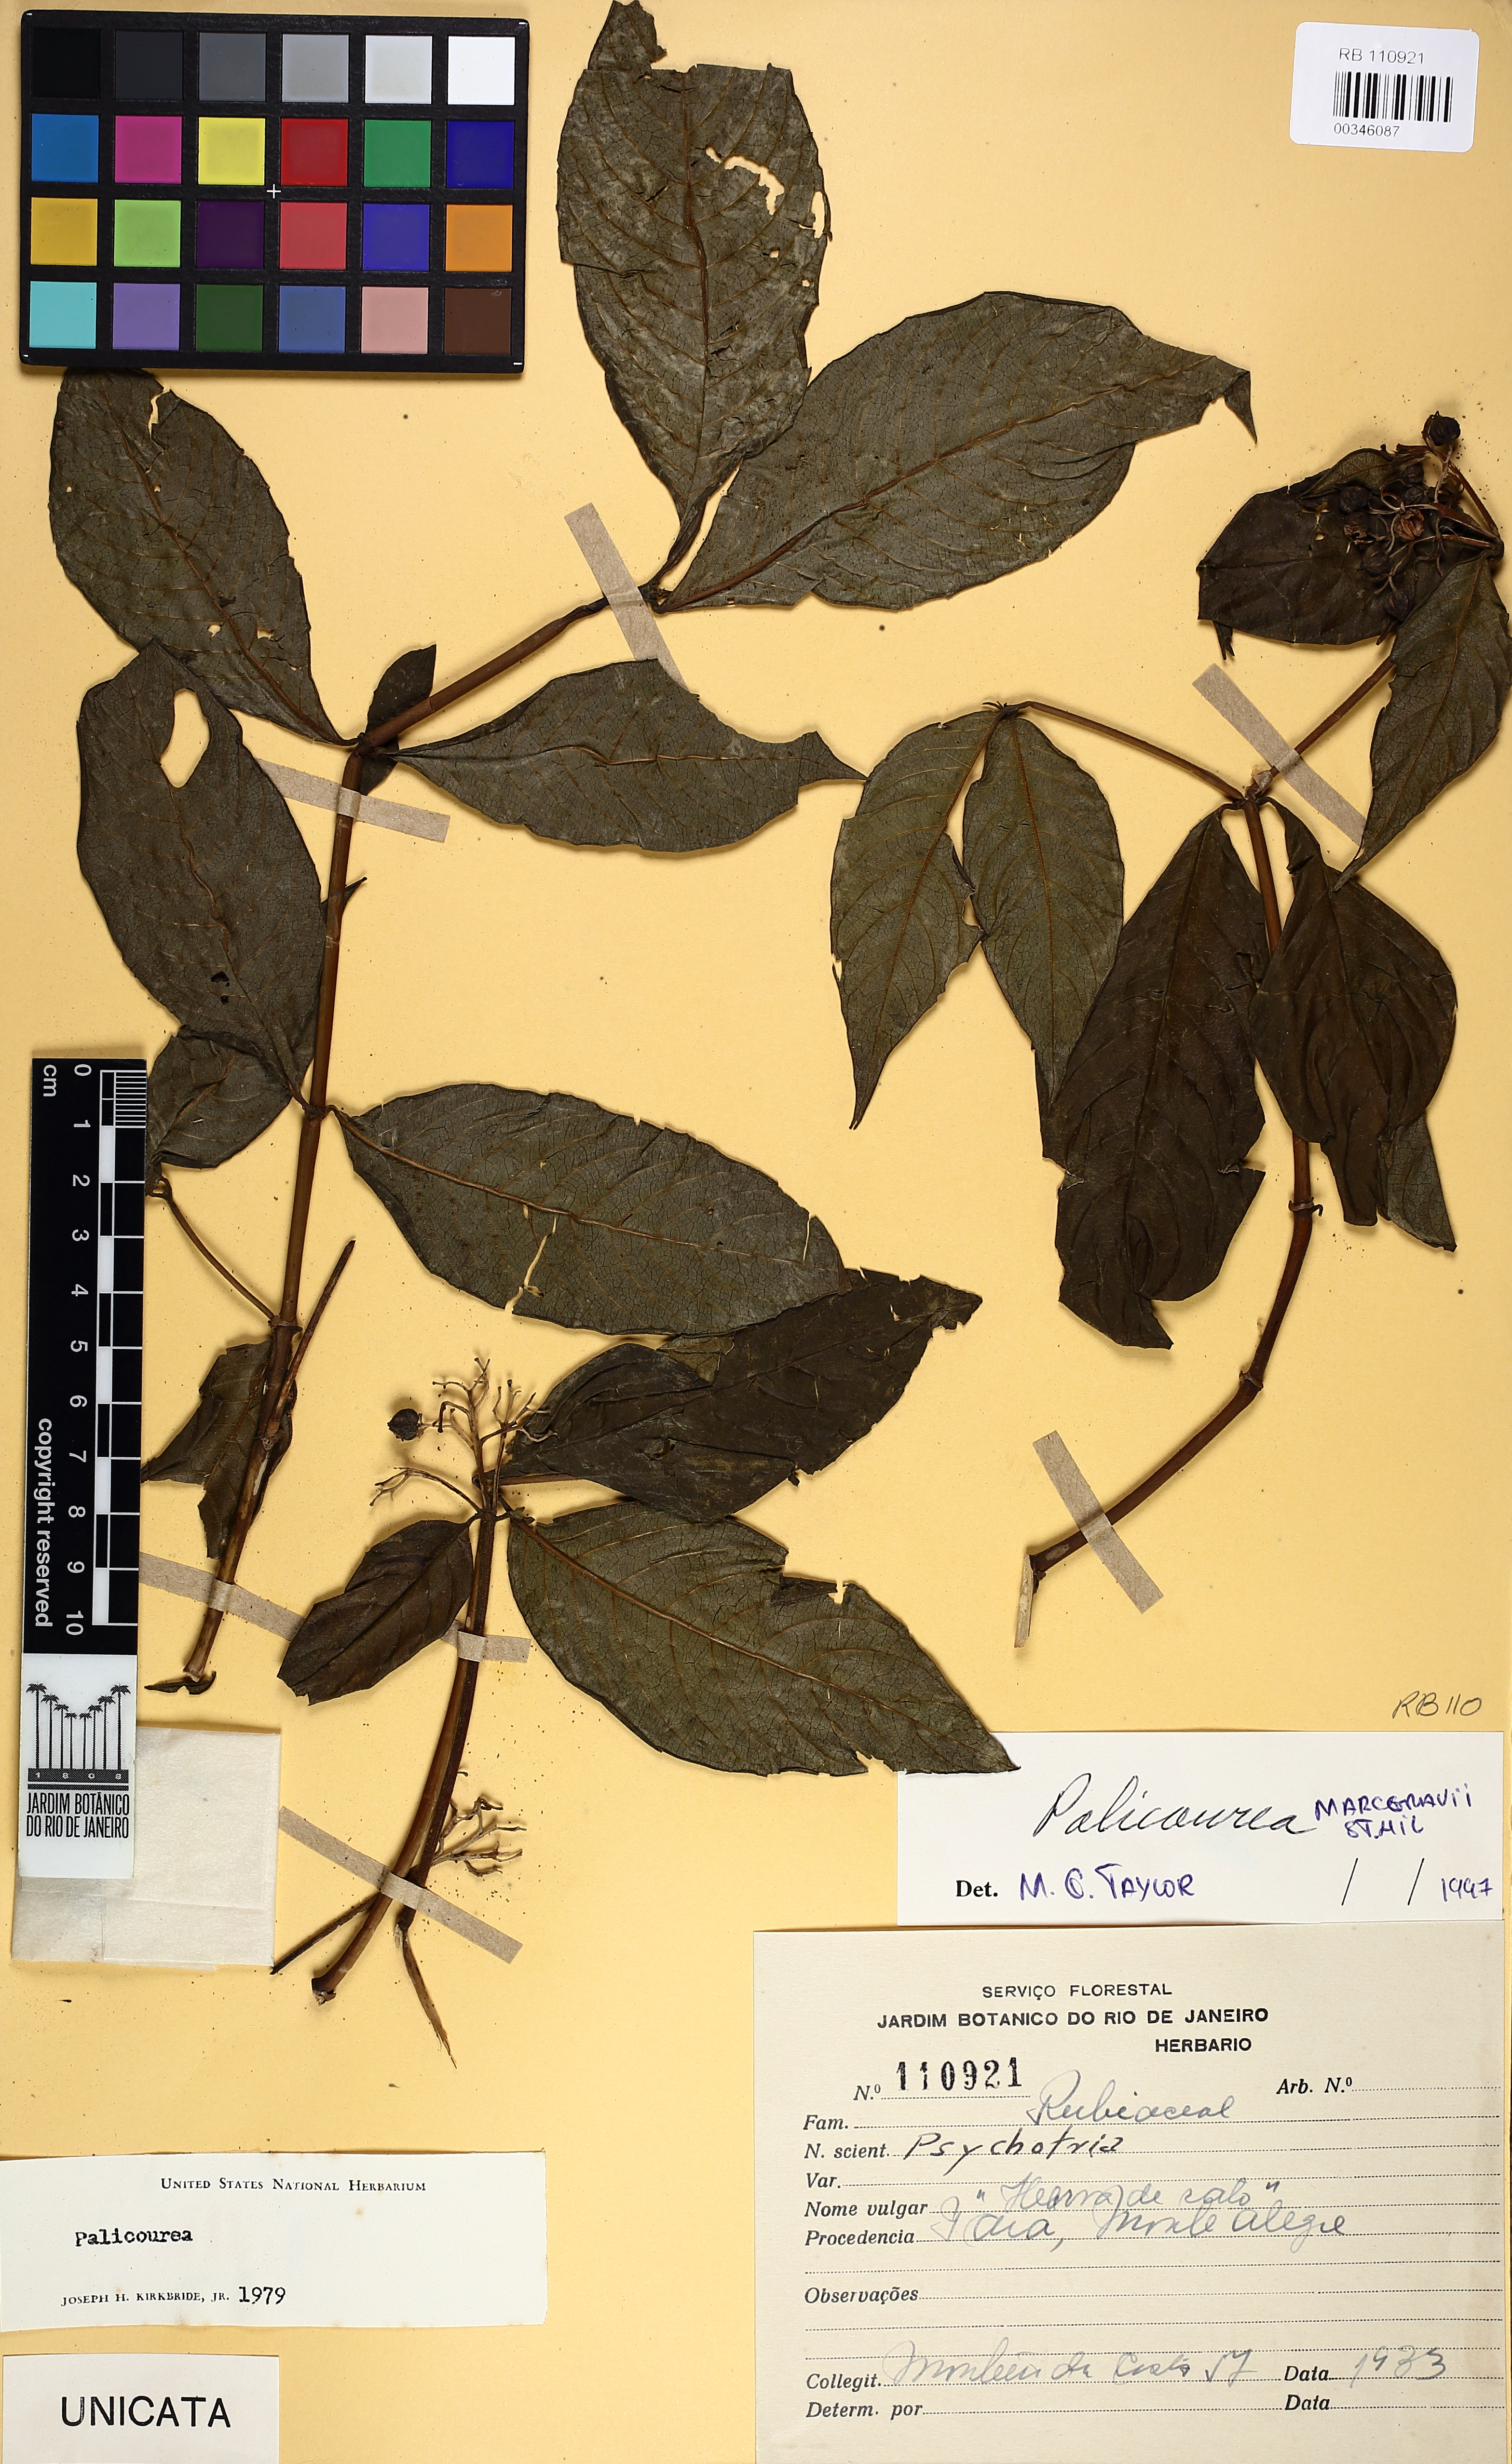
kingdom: Plantae
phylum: Tracheophyta
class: Magnoliopsida
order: Gentianales
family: Rubiaceae
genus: Palicourea
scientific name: Palicourea marcgravii
